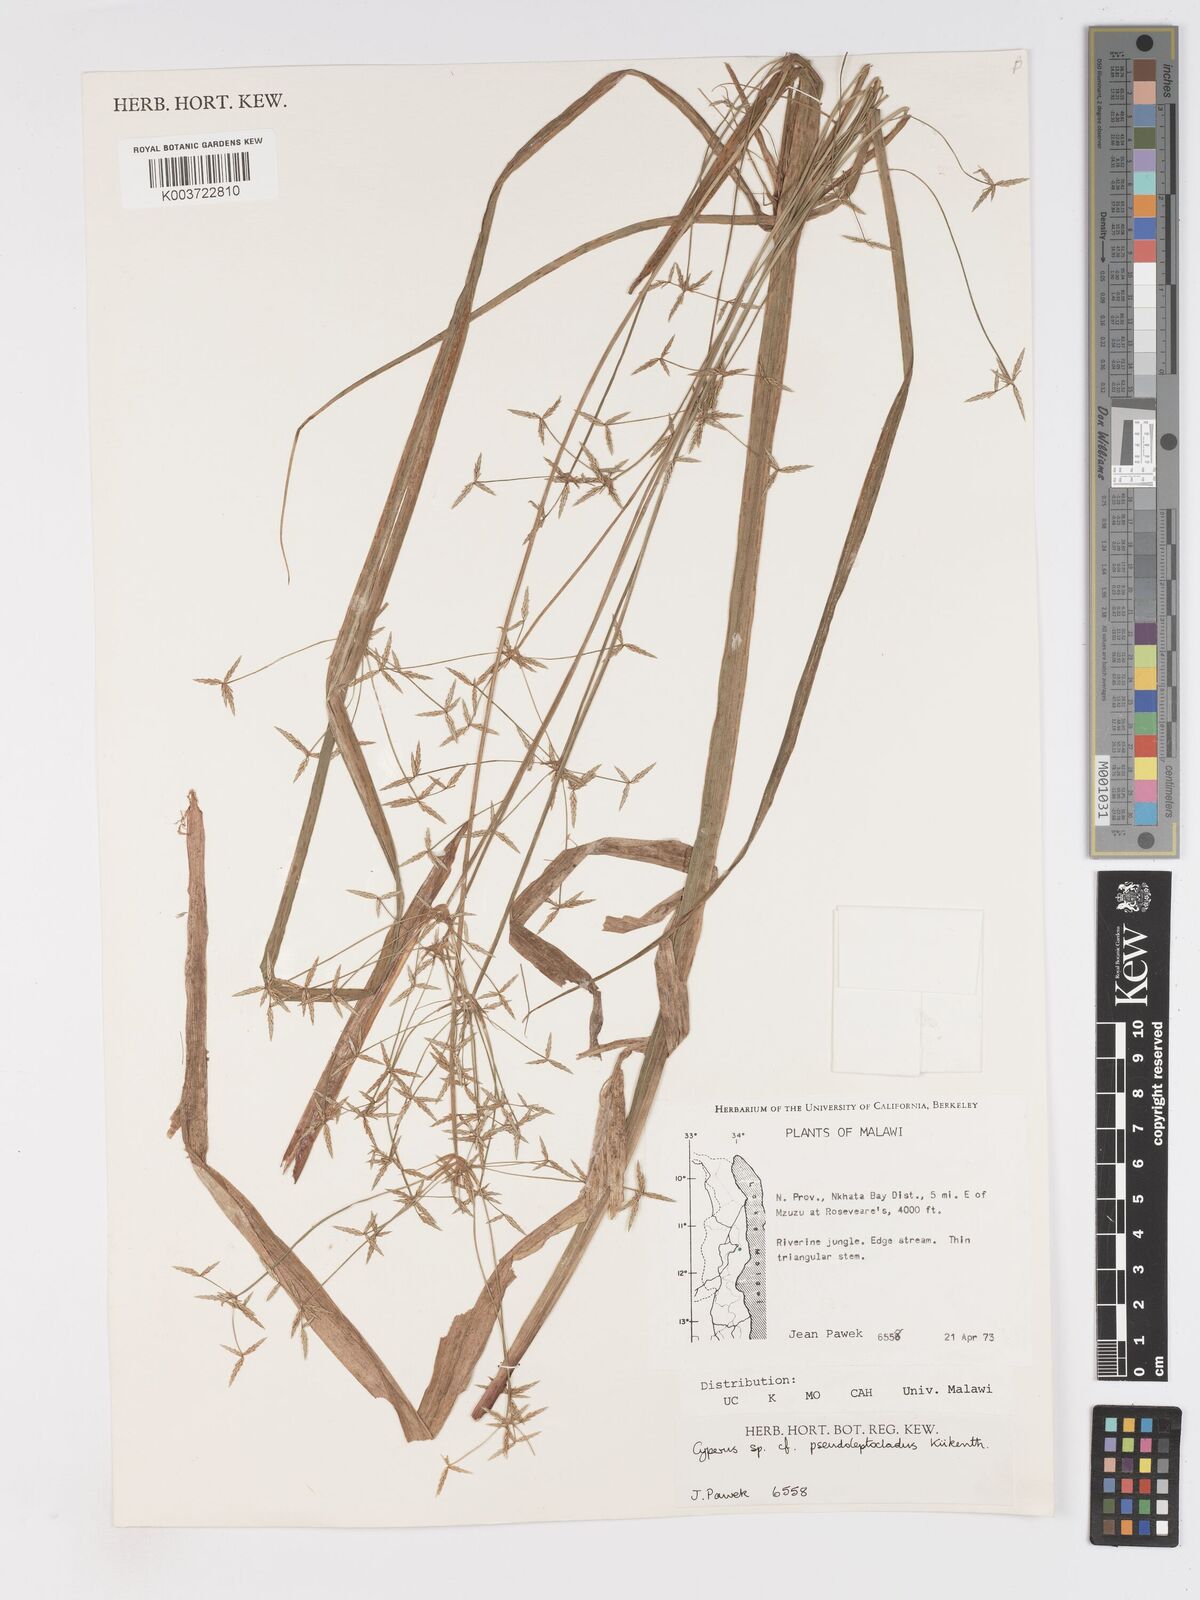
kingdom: Plantae
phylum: Tracheophyta
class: Liliopsida
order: Poales
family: Cyperaceae
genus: Cyperus
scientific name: Cyperus glaucophyllus
